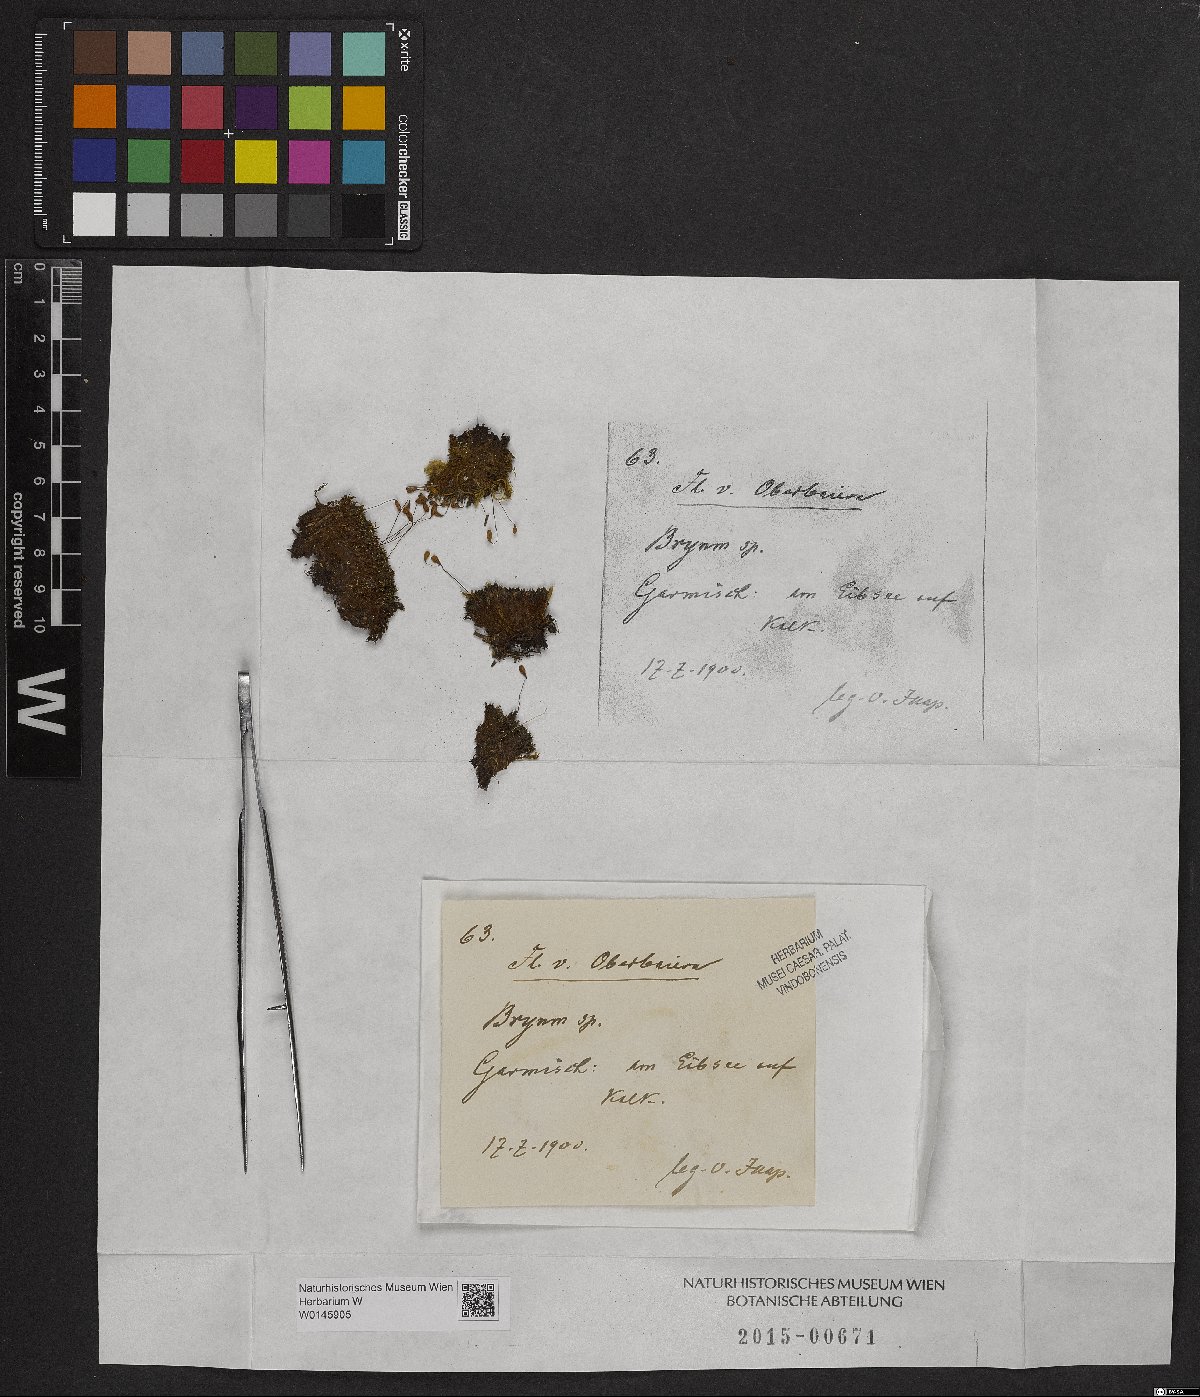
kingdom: Plantae
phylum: Bryophyta
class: Bryopsida
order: Bryales
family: Bryaceae
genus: Bryum
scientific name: Bryum
